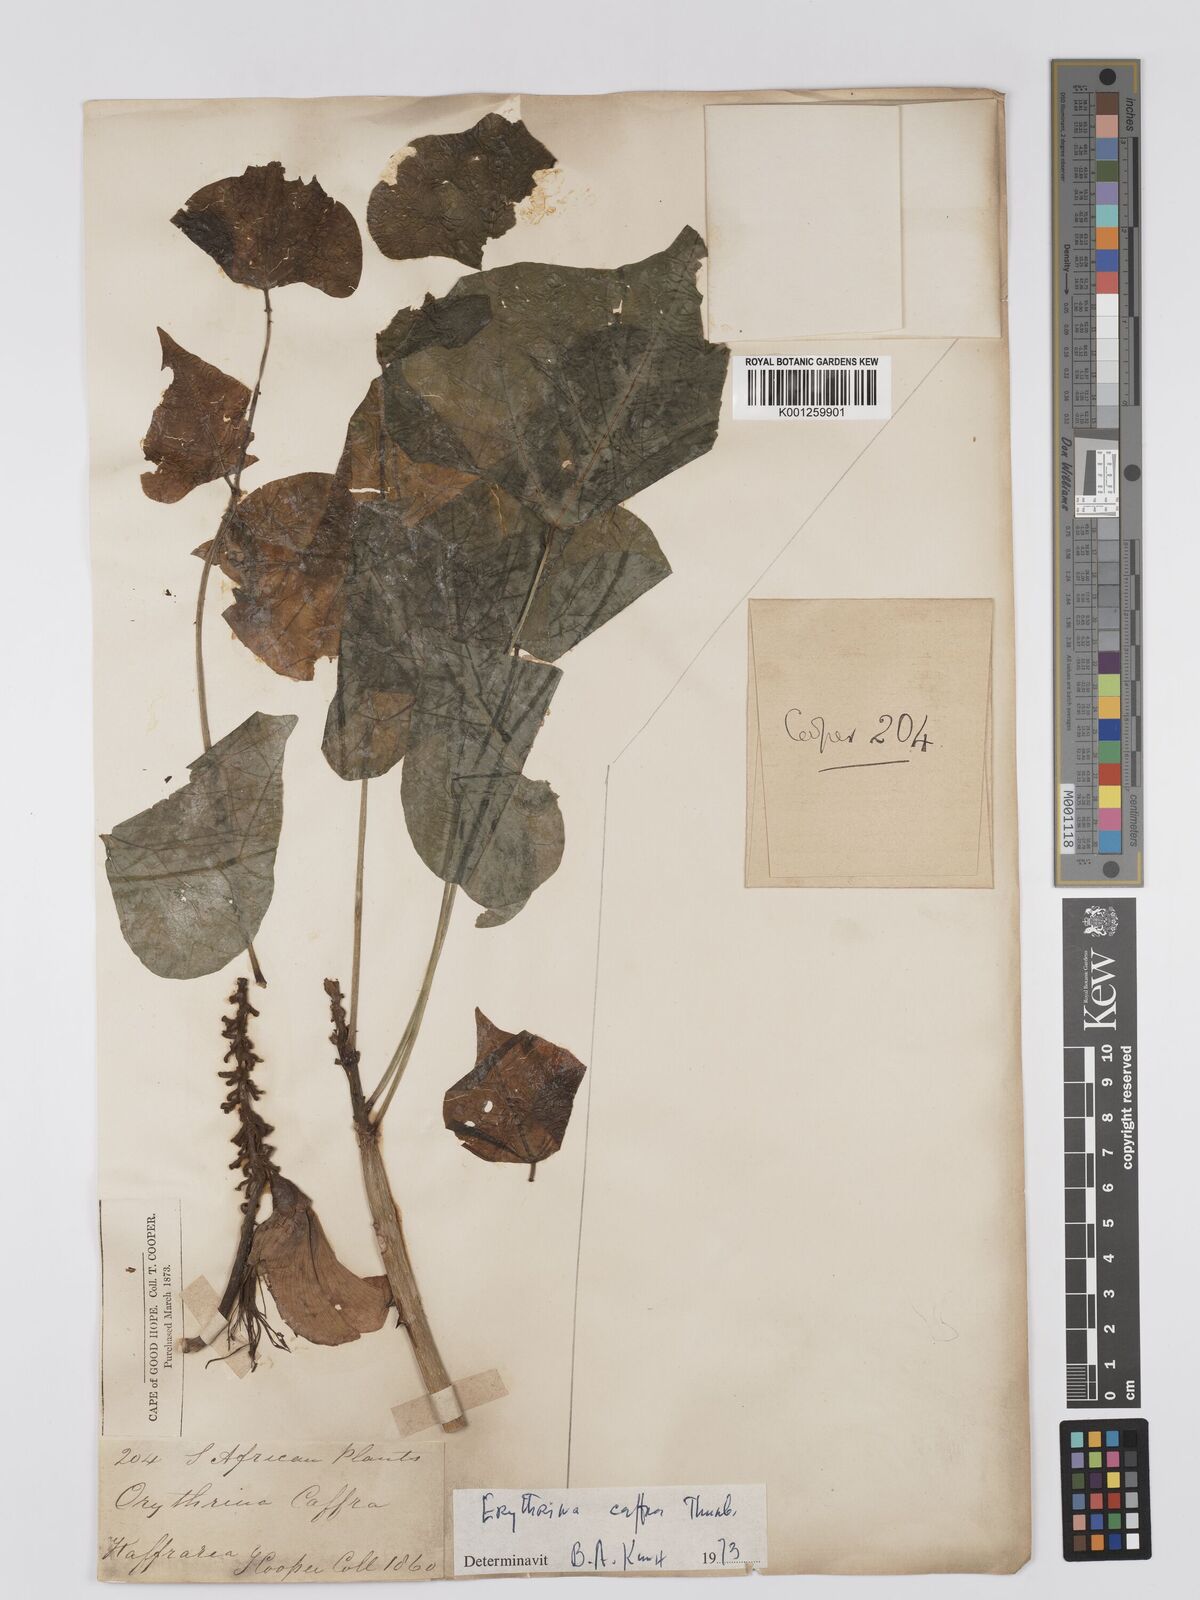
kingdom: Plantae
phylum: Tracheophyta
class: Magnoliopsida
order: Fabales
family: Fabaceae
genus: Erythrina
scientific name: Erythrina caffra
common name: Coast coral tree
